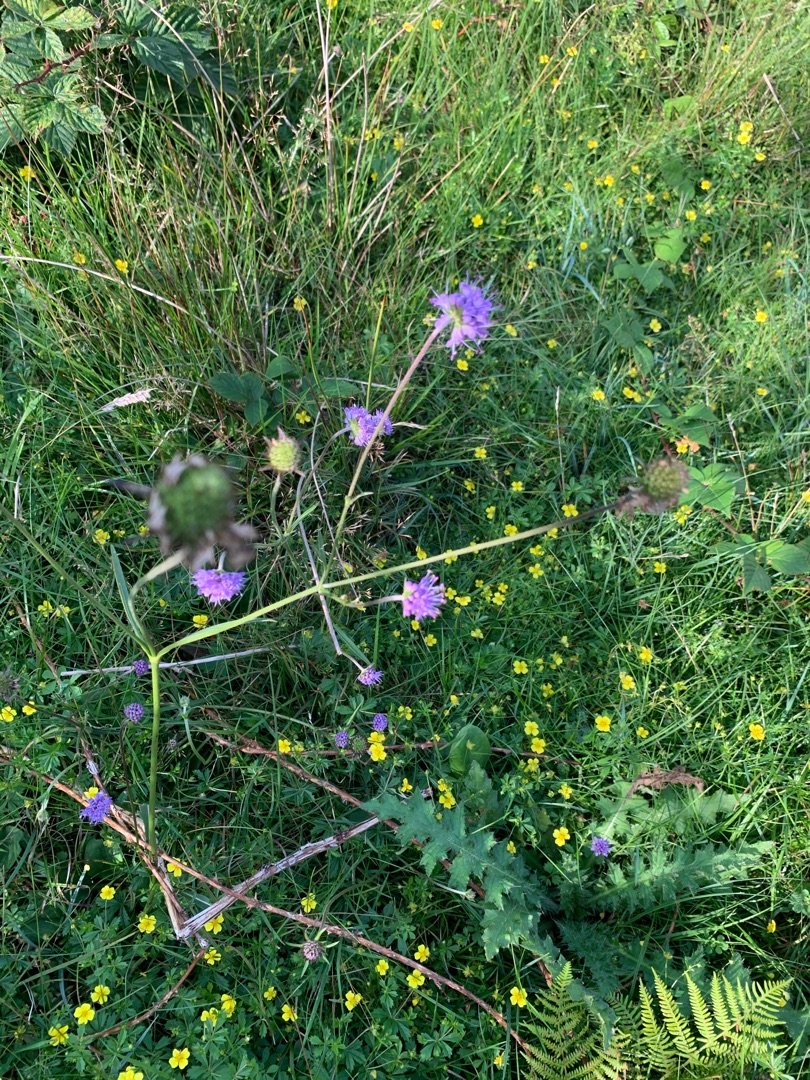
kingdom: Plantae
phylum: Tracheophyta
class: Magnoliopsida
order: Dipsacales
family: Caprifoliaceae
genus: Succisa
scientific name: Succisa pratensis
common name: Djævelsbid
